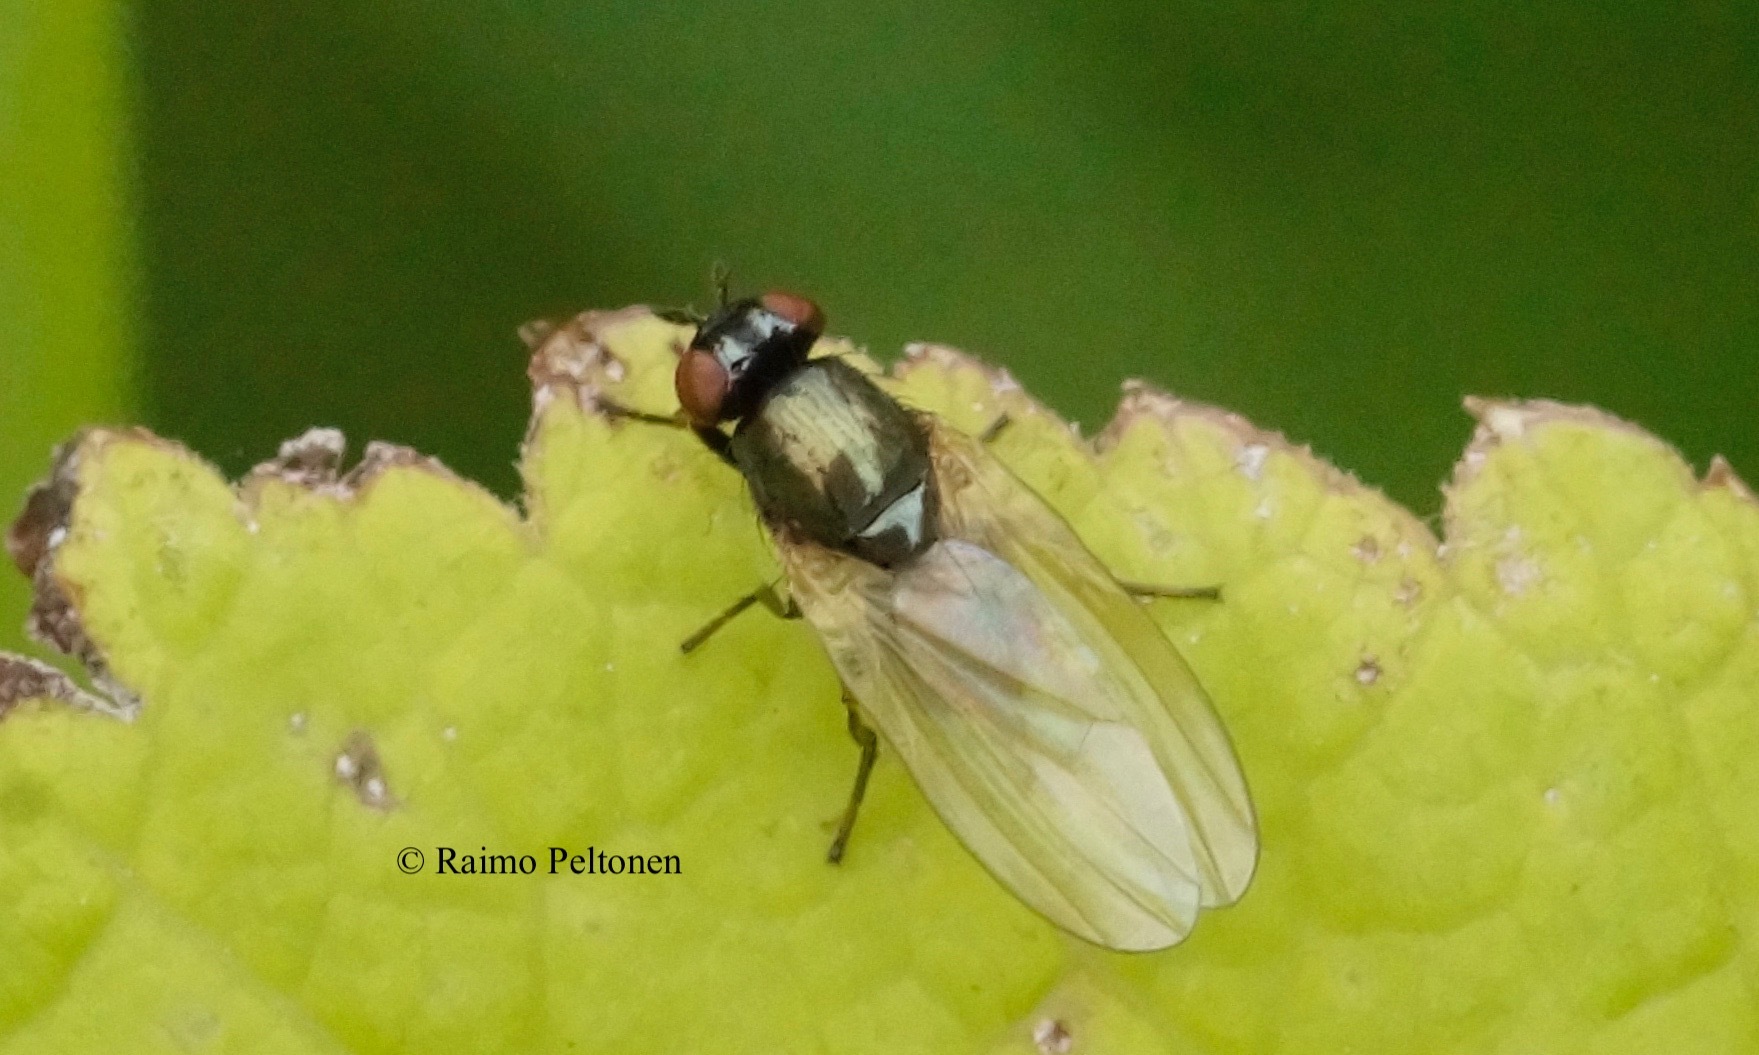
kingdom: Animalia
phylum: Arthropoda
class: Insecta
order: Diptera
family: Lauxaniidae
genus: Calliopum
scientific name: Calliopum aeneum
